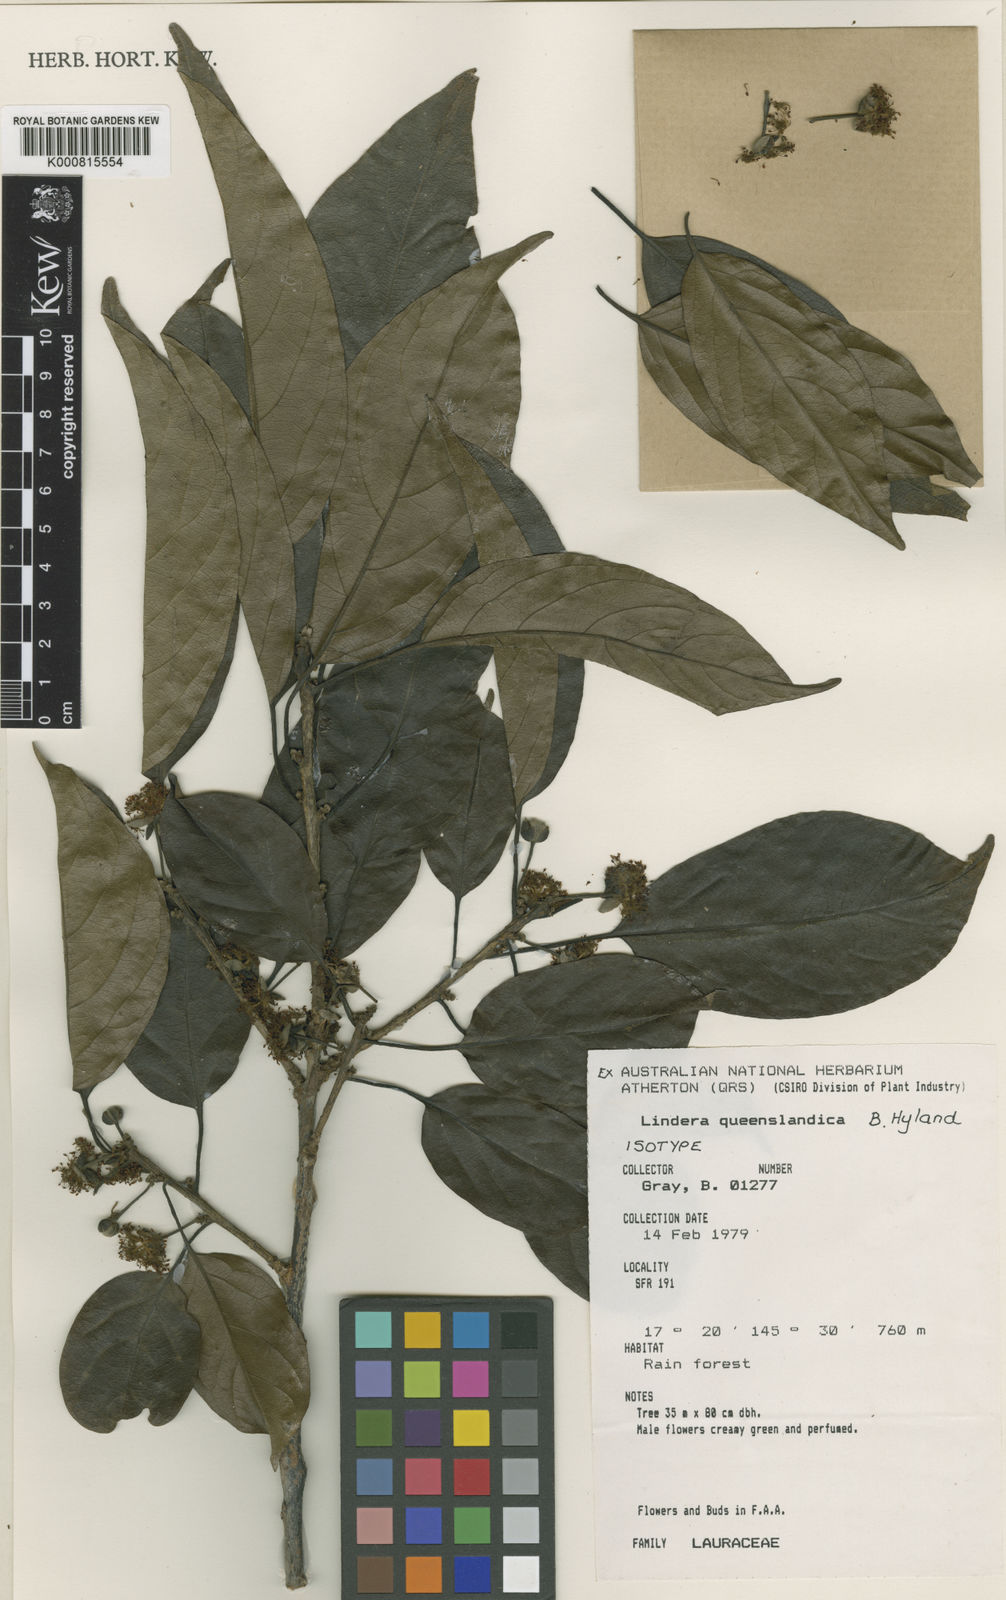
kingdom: Plantae
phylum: Tracheophyta
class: Magnoliopsida
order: Laurales
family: Lauraceae
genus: Lindera
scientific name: Lindera queenslandica
